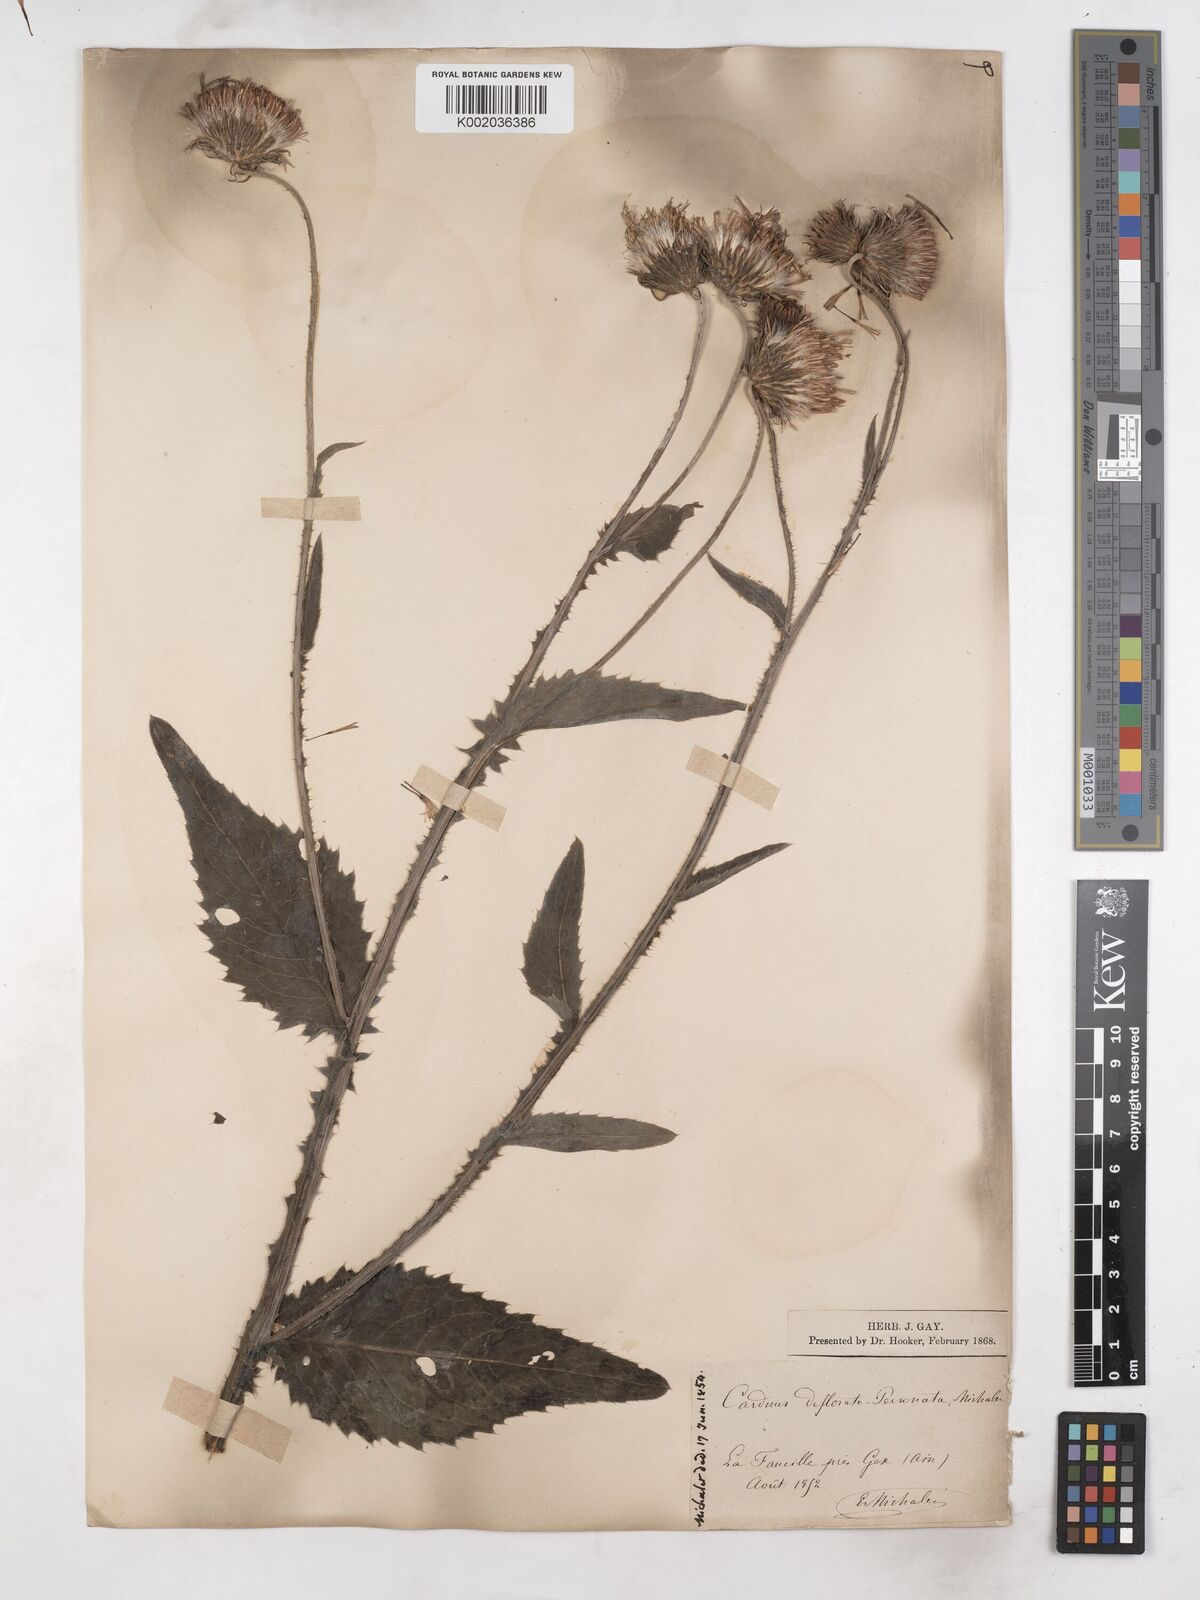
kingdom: Plantae
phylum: Tracheophyta
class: Magnoliopsida
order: Asterales
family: Asteraceae
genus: Carduus
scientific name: Carduus defloratus
